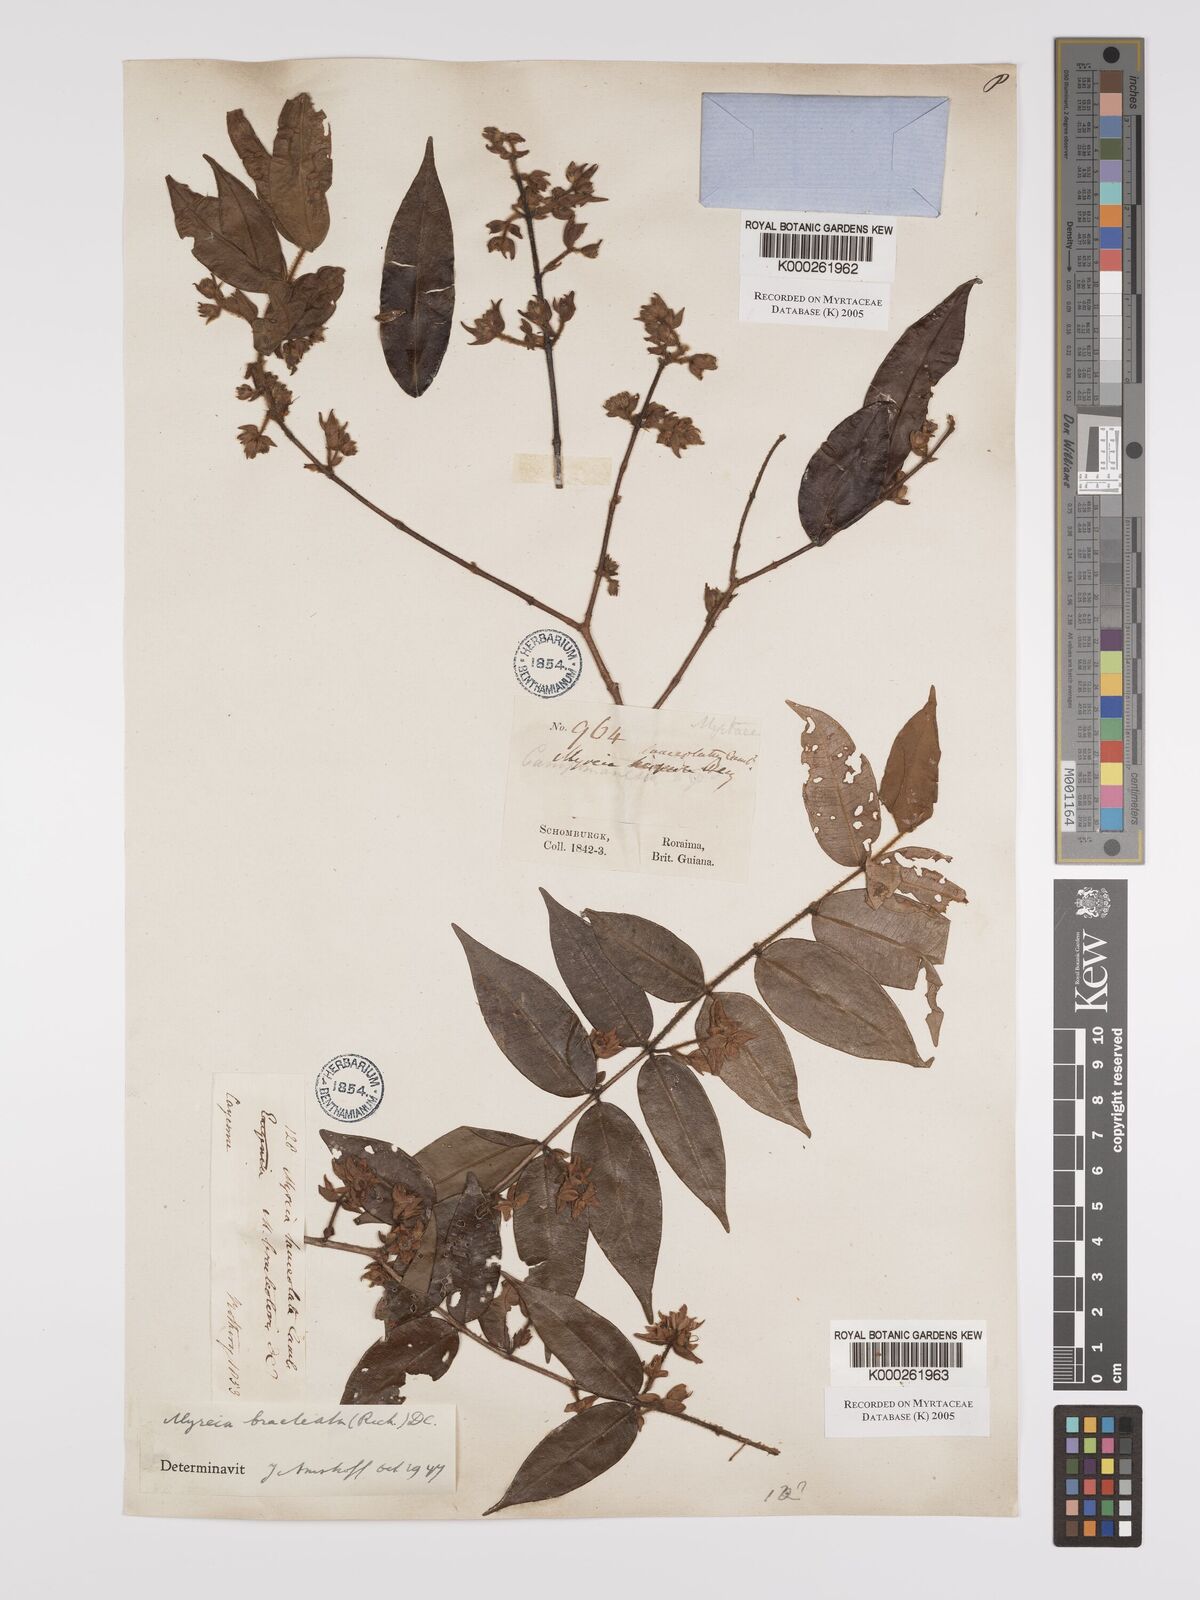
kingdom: Plantae
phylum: Tracheophyta
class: Magnoliopsida
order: Myrtales
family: Myrtaceae
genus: Myrcia
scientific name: Myrcia bracteata
